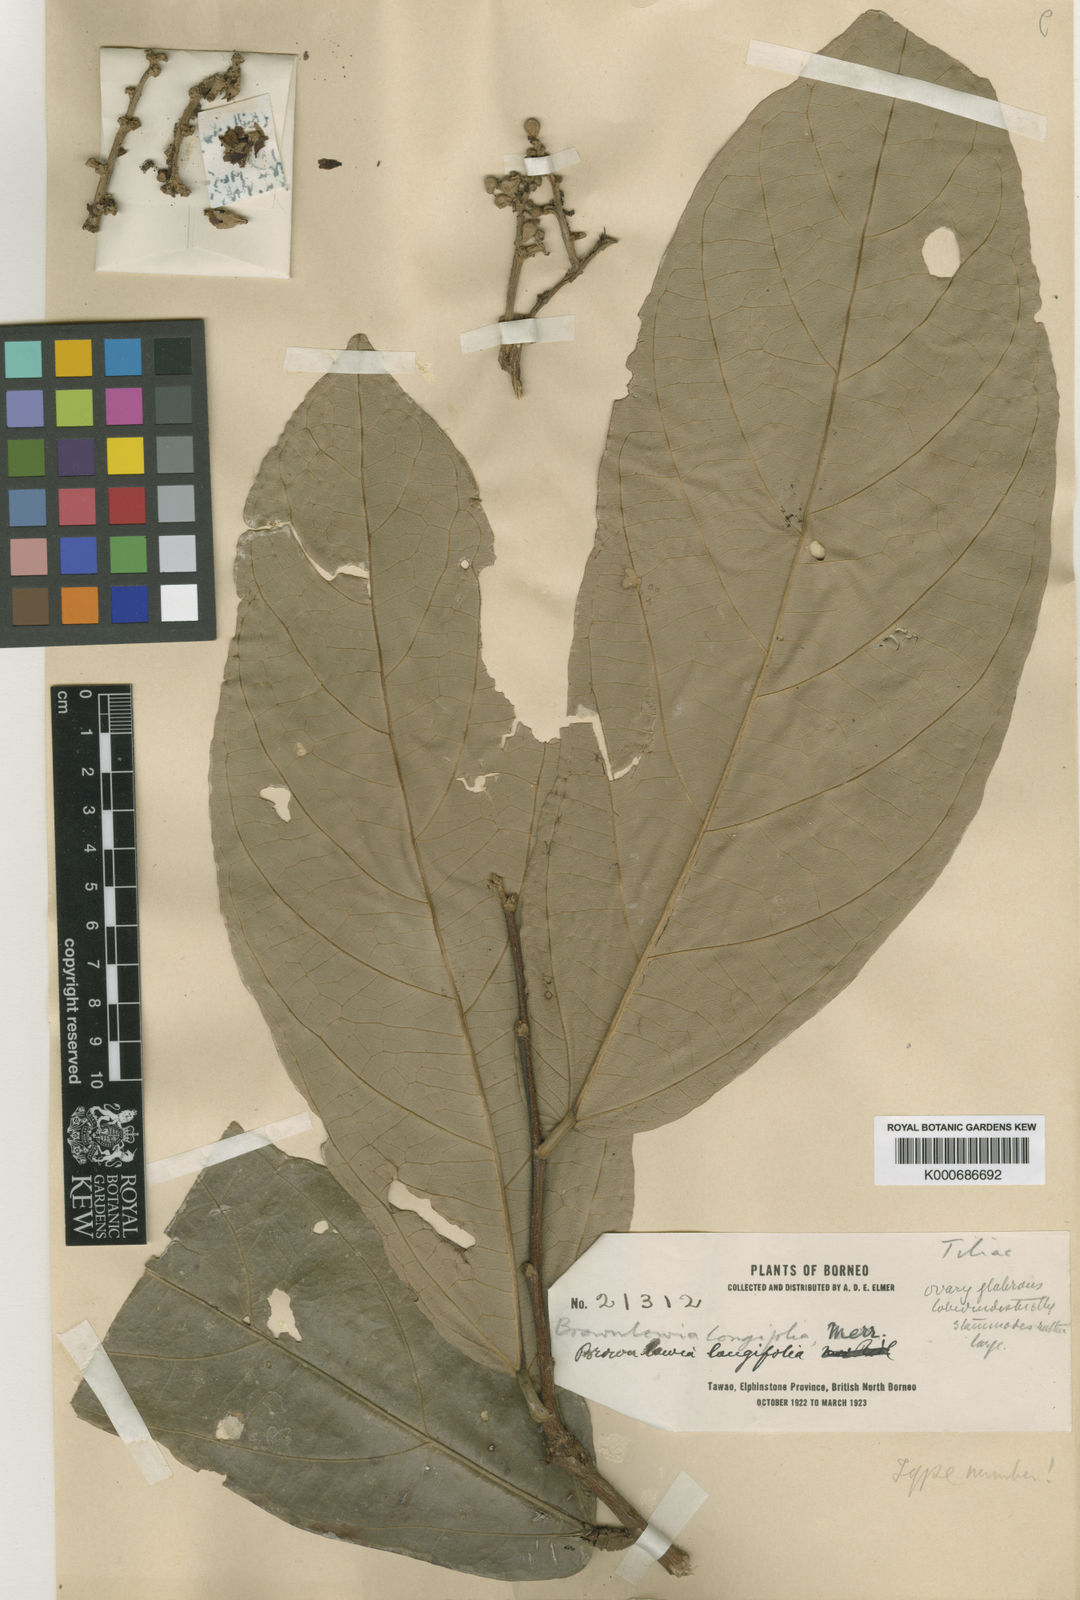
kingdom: Plantae
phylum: Tracheophyta
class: Magnoliopsida
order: Malvales
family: Malvaceae
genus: Diplodiscus
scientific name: Diplodiscus longifolius
